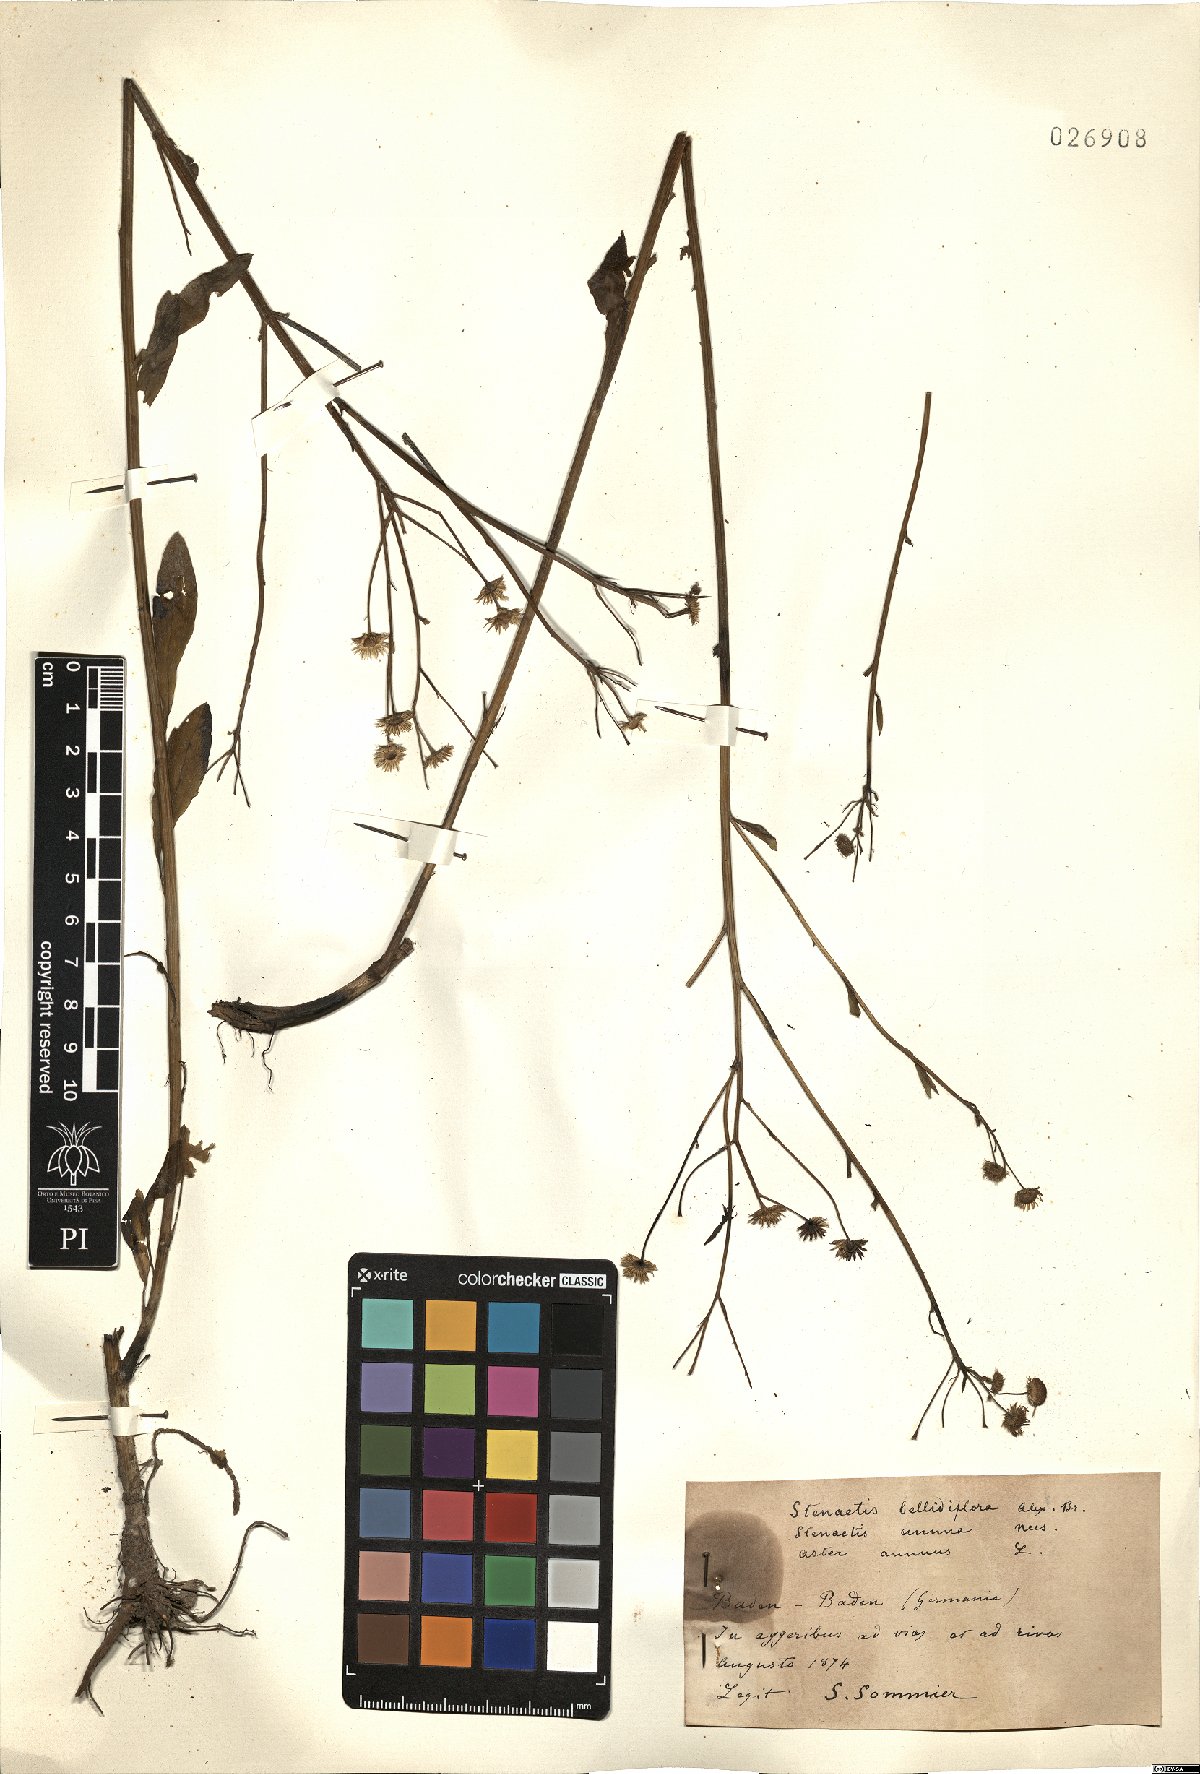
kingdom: Plantae
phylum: Tracheophyta
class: Magnoliopsida
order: Asterales
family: Asteraceae
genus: Erigeron
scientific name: Erigeron annuus
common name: Tall fleabane
